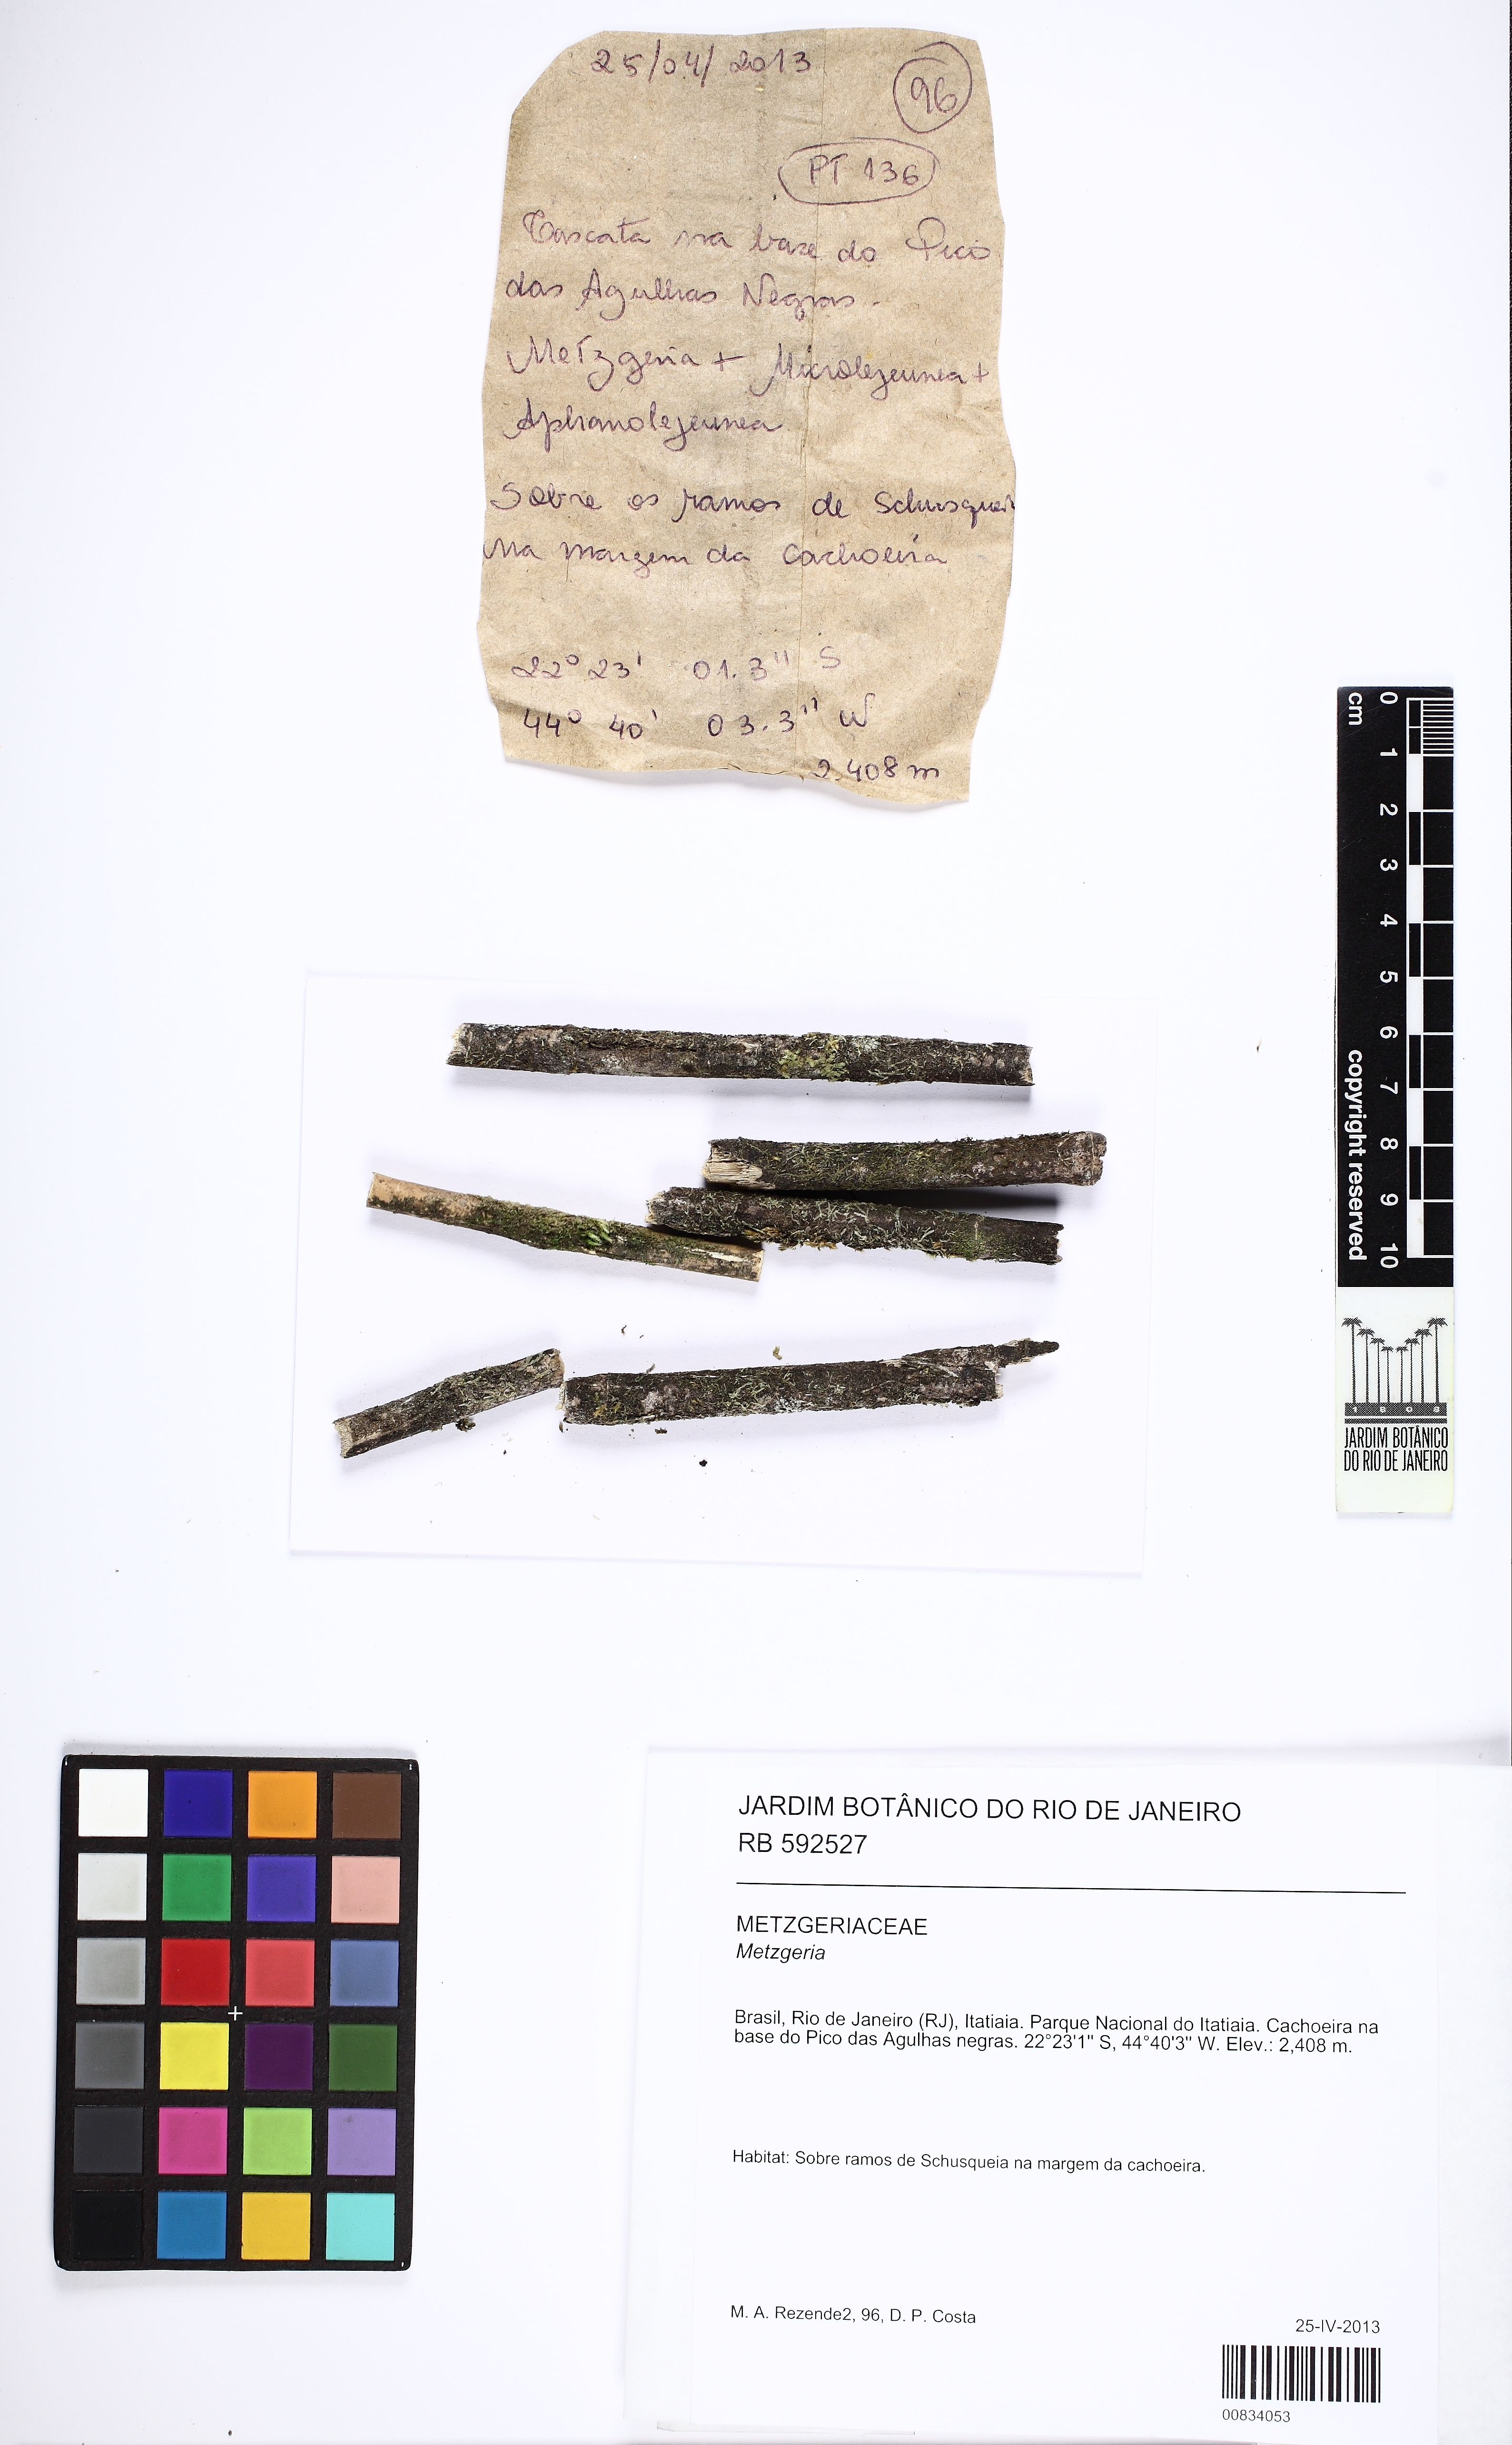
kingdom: Plantae
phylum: Marchantiophyta
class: Jungermanniopsida
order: Metzgeriales
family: Metzgeriaceae
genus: Metzgeria
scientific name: Metzgeria
